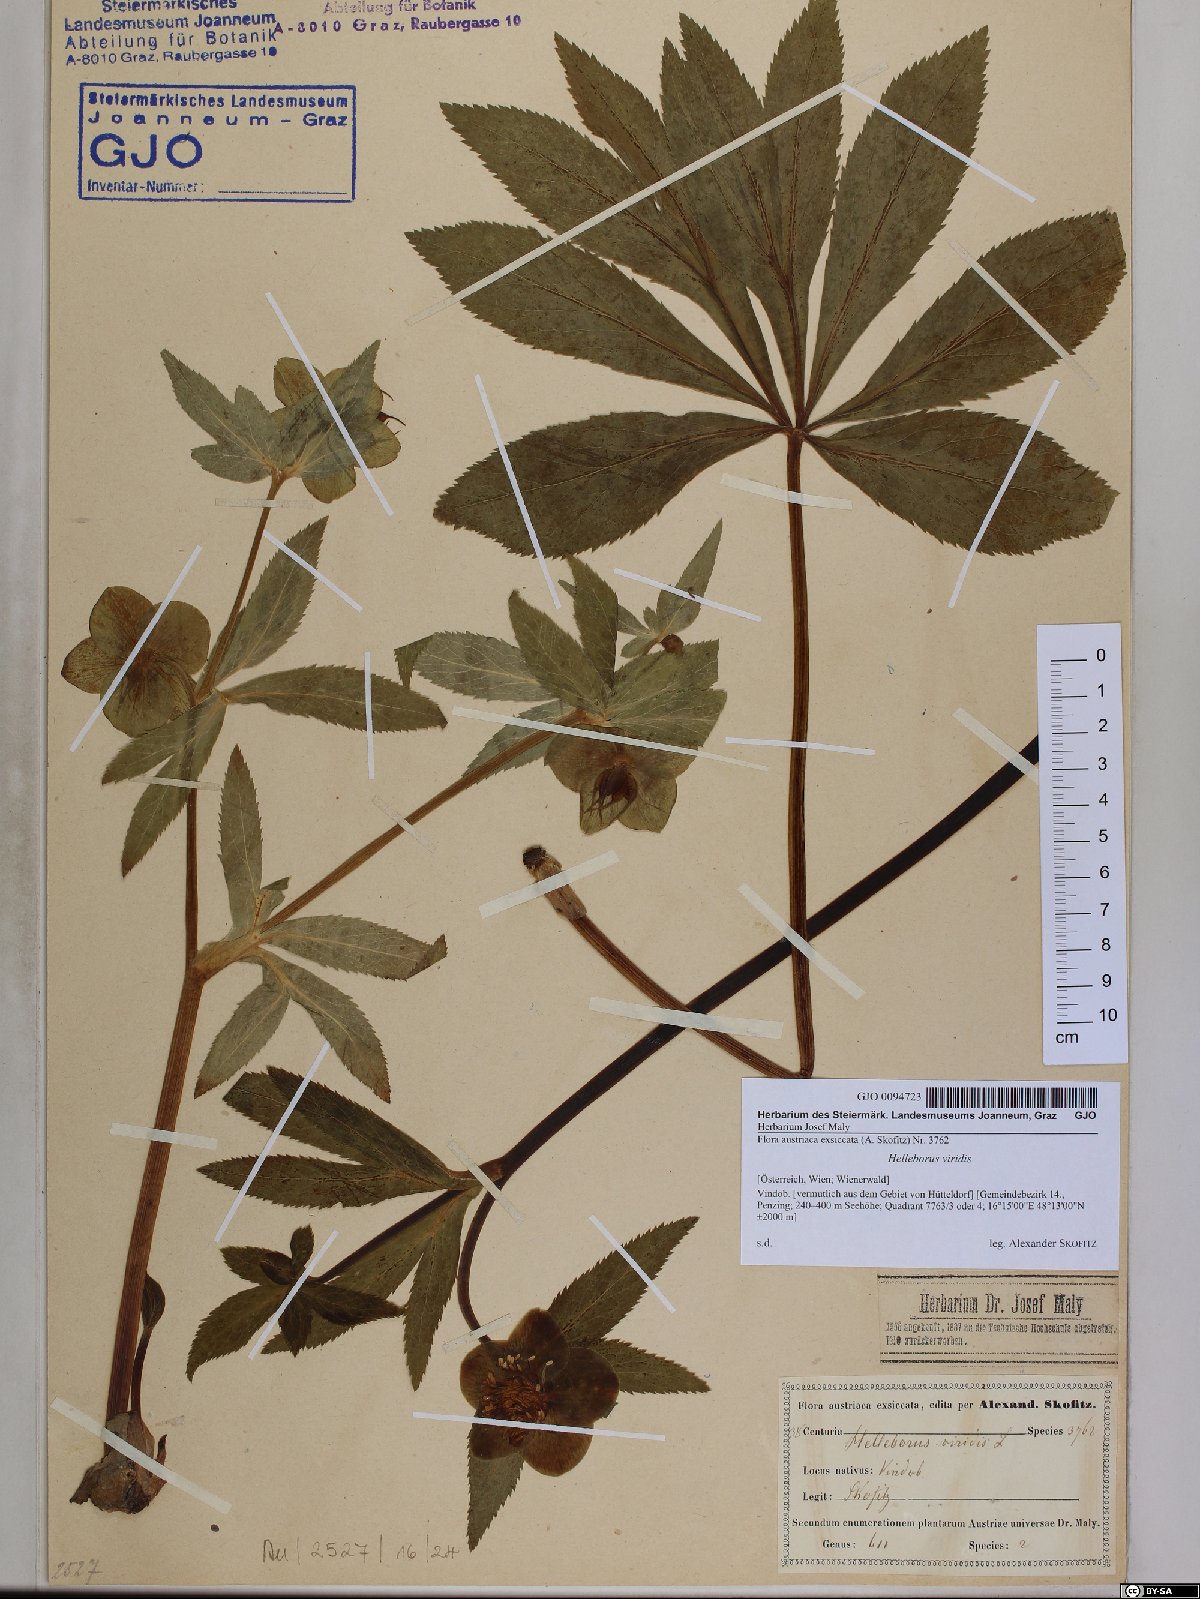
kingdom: Plantae
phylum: Tracheophyta
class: Magnoliopsida
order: Ranunculales
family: Ranunculaceae
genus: Helleborus
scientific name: Helleborus viridis
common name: Green hellebore
